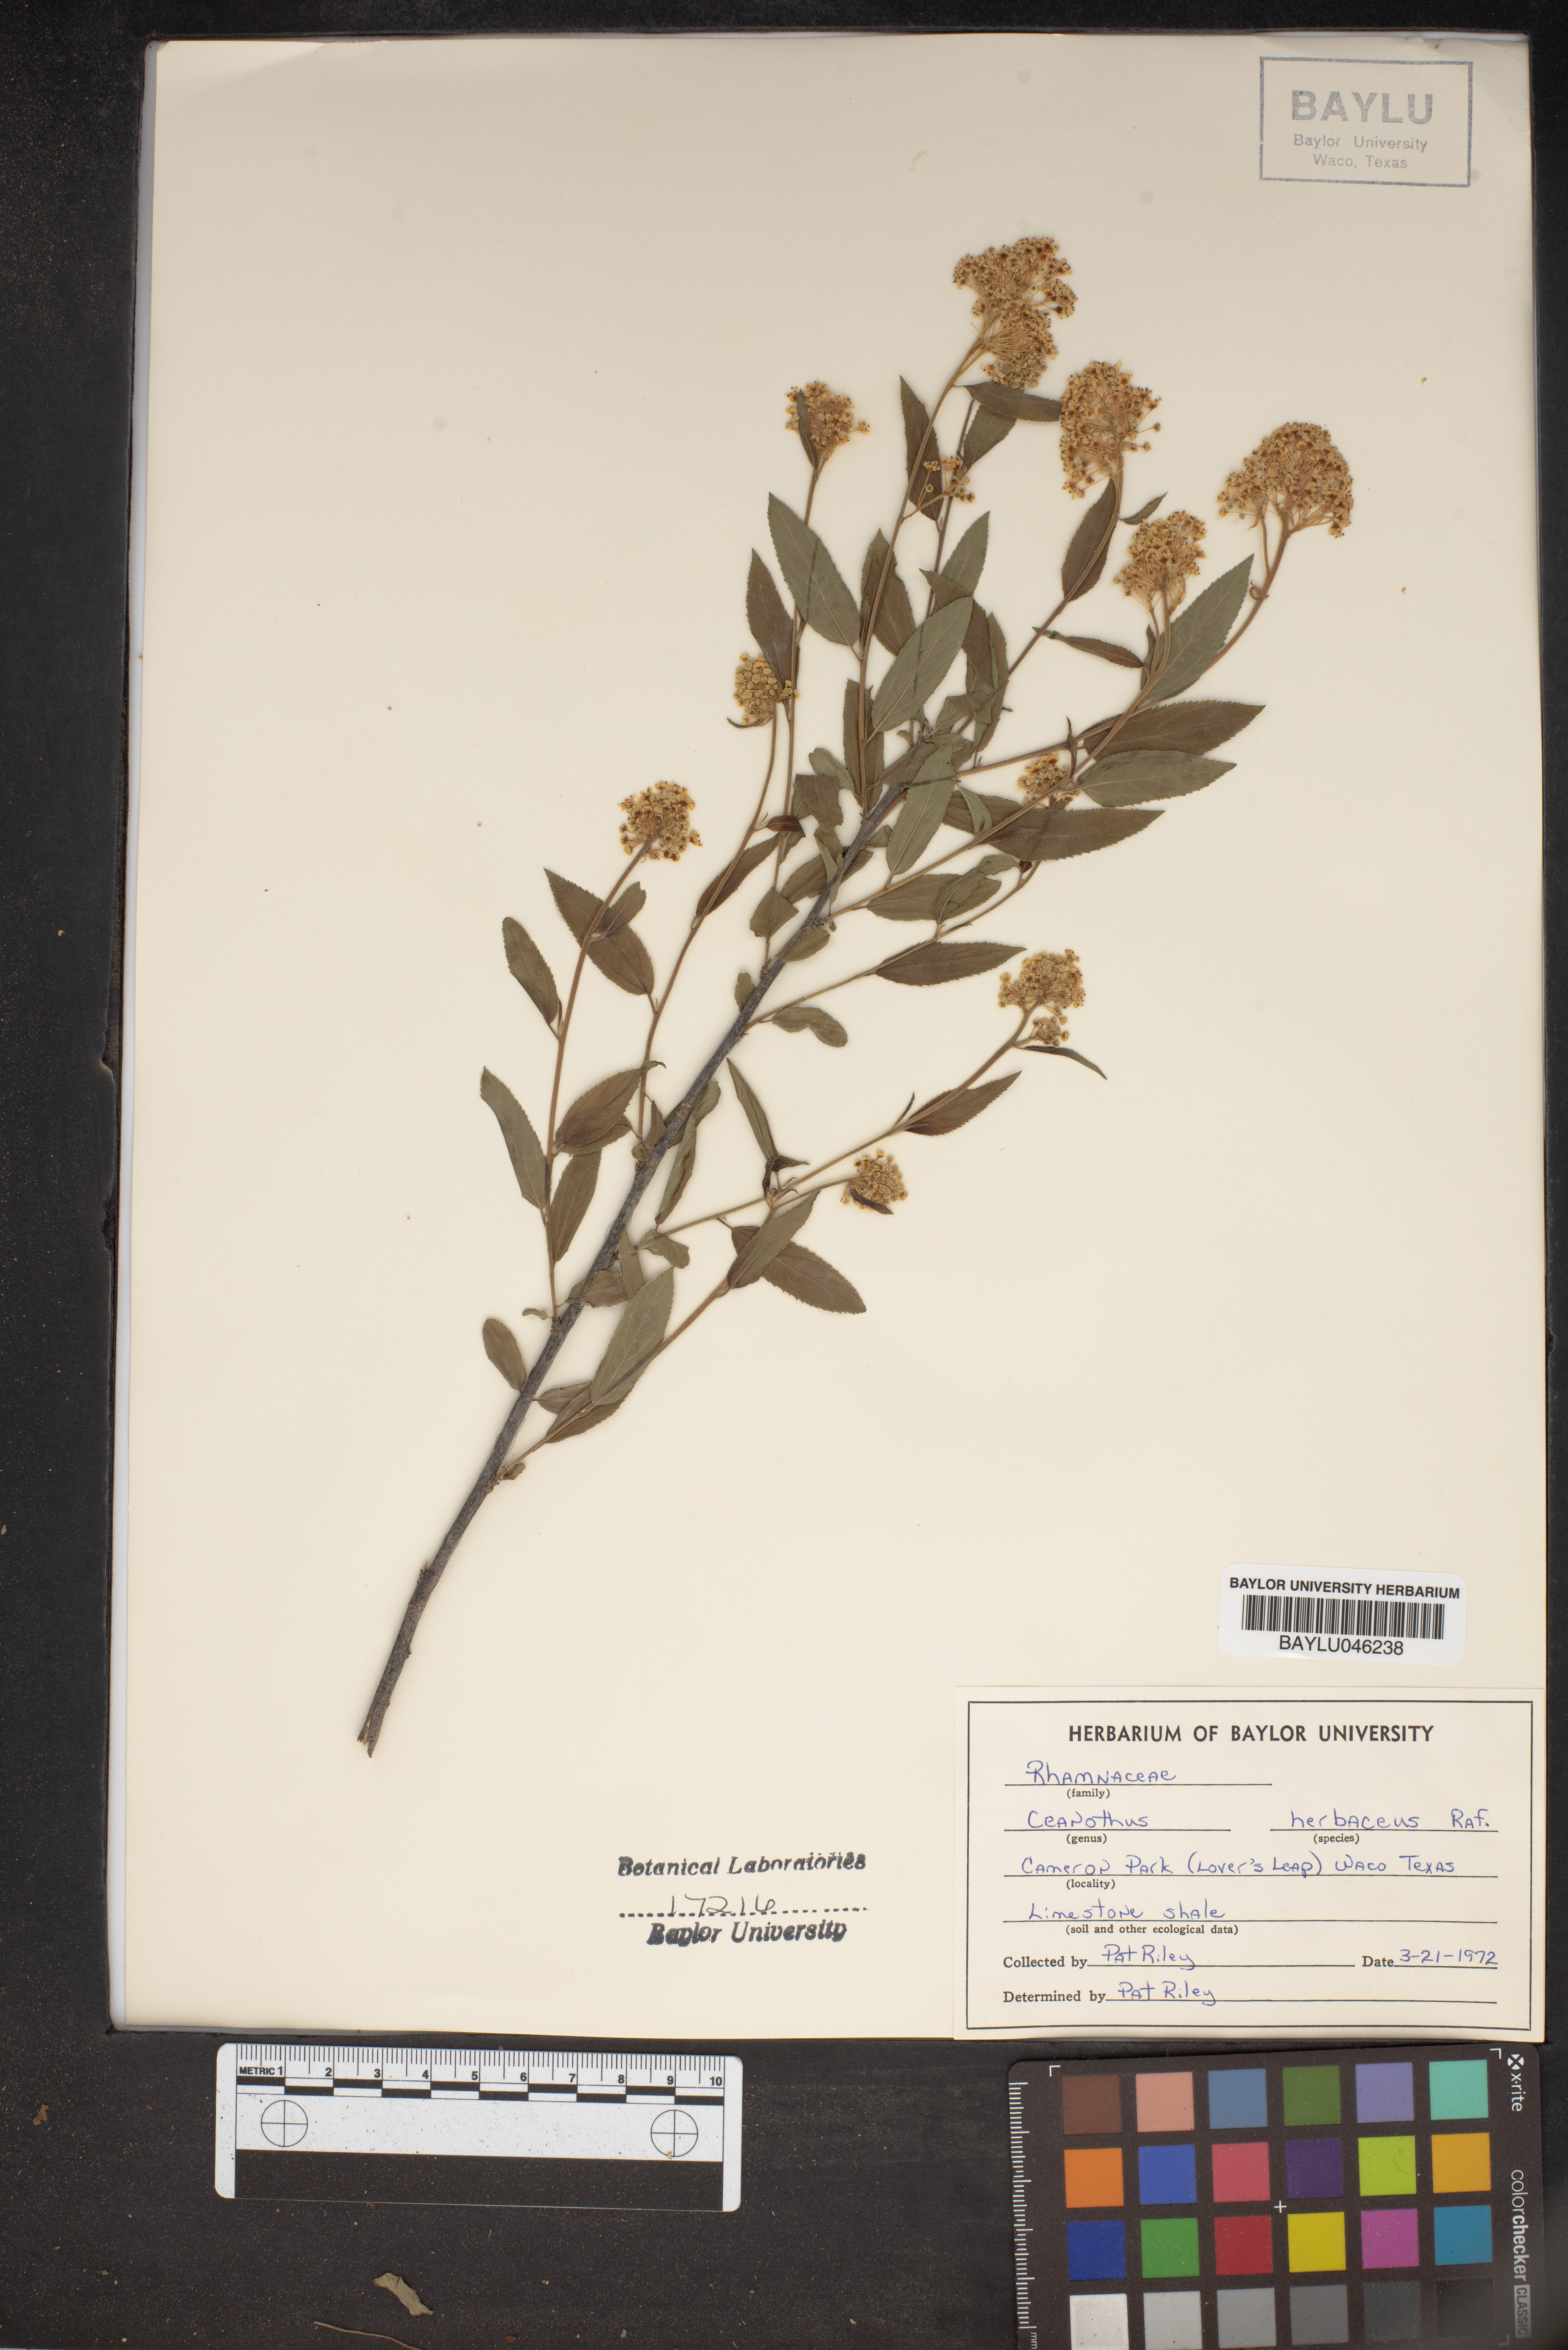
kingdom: Plantae
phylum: Tracheophyta
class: Magnoliopsida
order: Rosales
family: Rhamnaceae
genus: Ceanothus
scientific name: Ceanothus herbaceus
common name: Inland ceanothus
